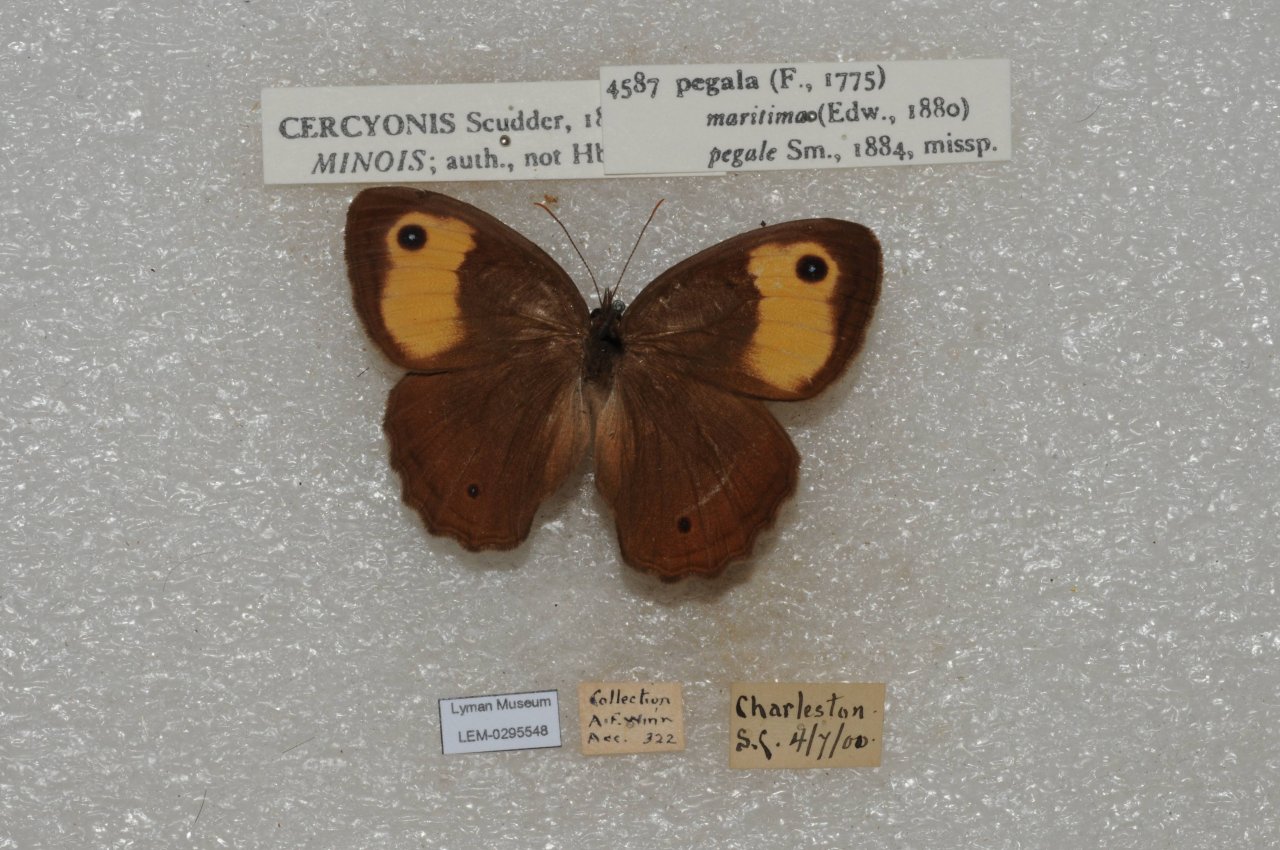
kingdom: Animalia
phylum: Arthropoda
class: Insecta
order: Lepidoptera
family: Nymphalidae
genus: Cercyonis
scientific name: Cercyonis pegala
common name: Common Wood-Nymph
